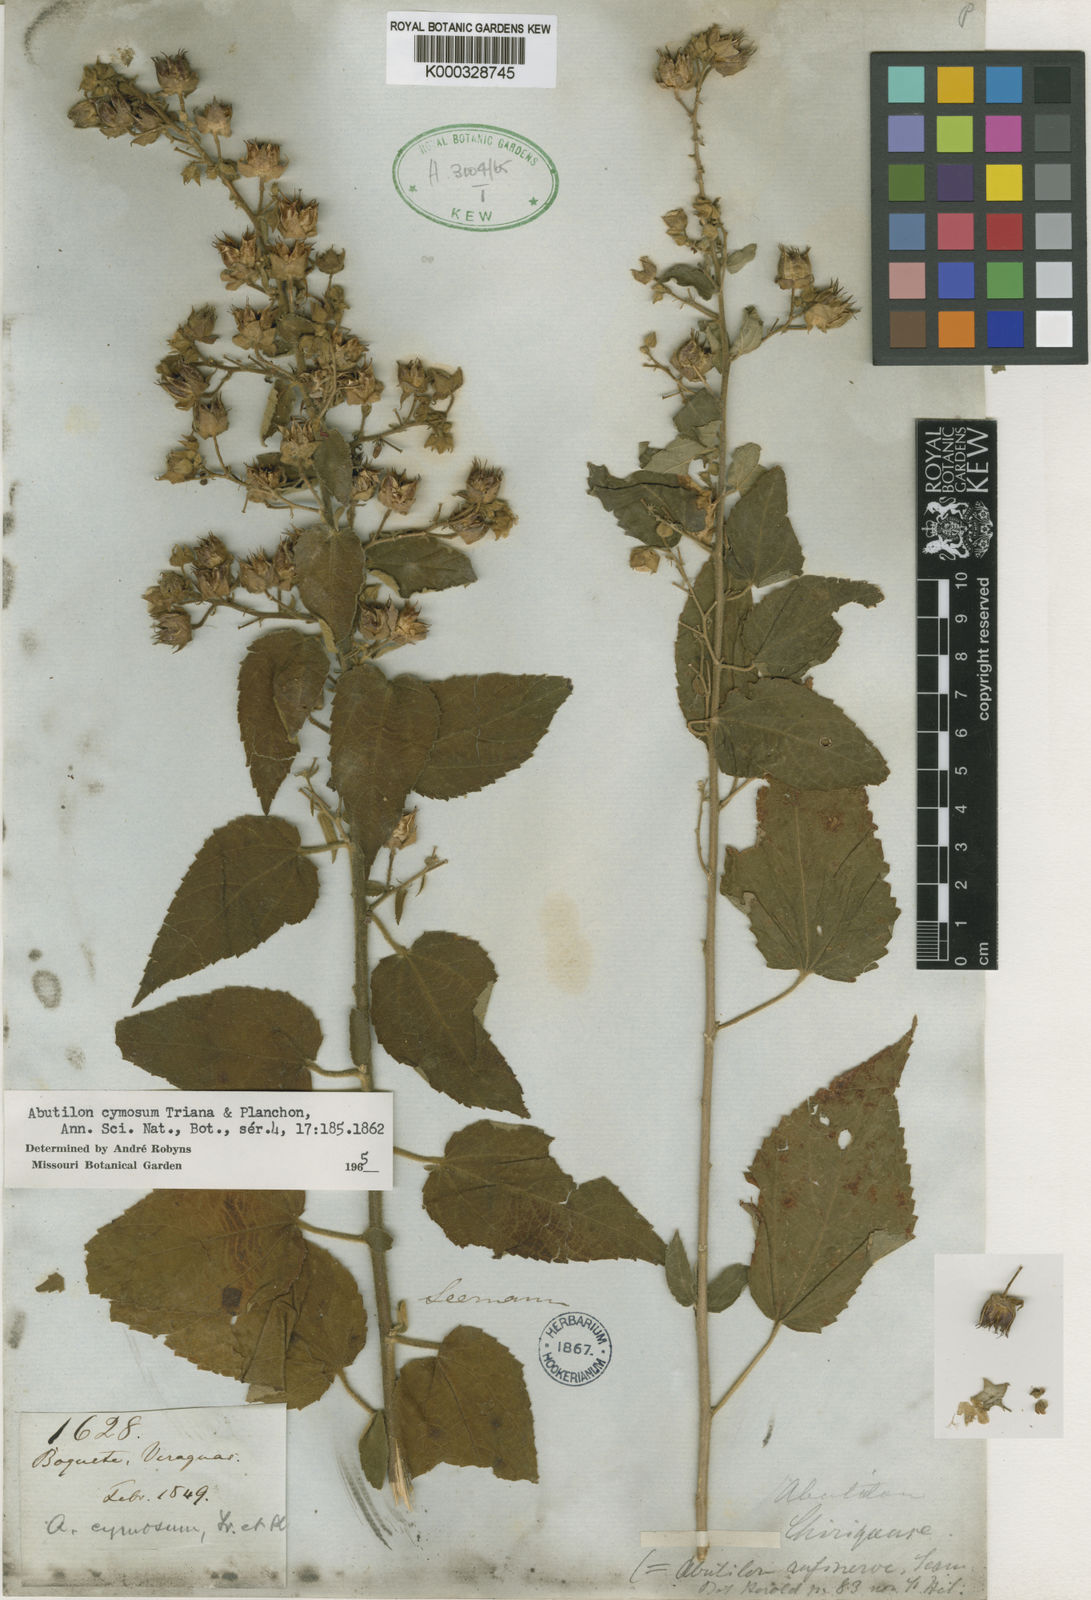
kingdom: Plantae
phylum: Tracheophyta
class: Magnoliopsida
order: Malvales
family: Malvaceae
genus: Pseudabutilon
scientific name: Pseudabutilon cymosum
